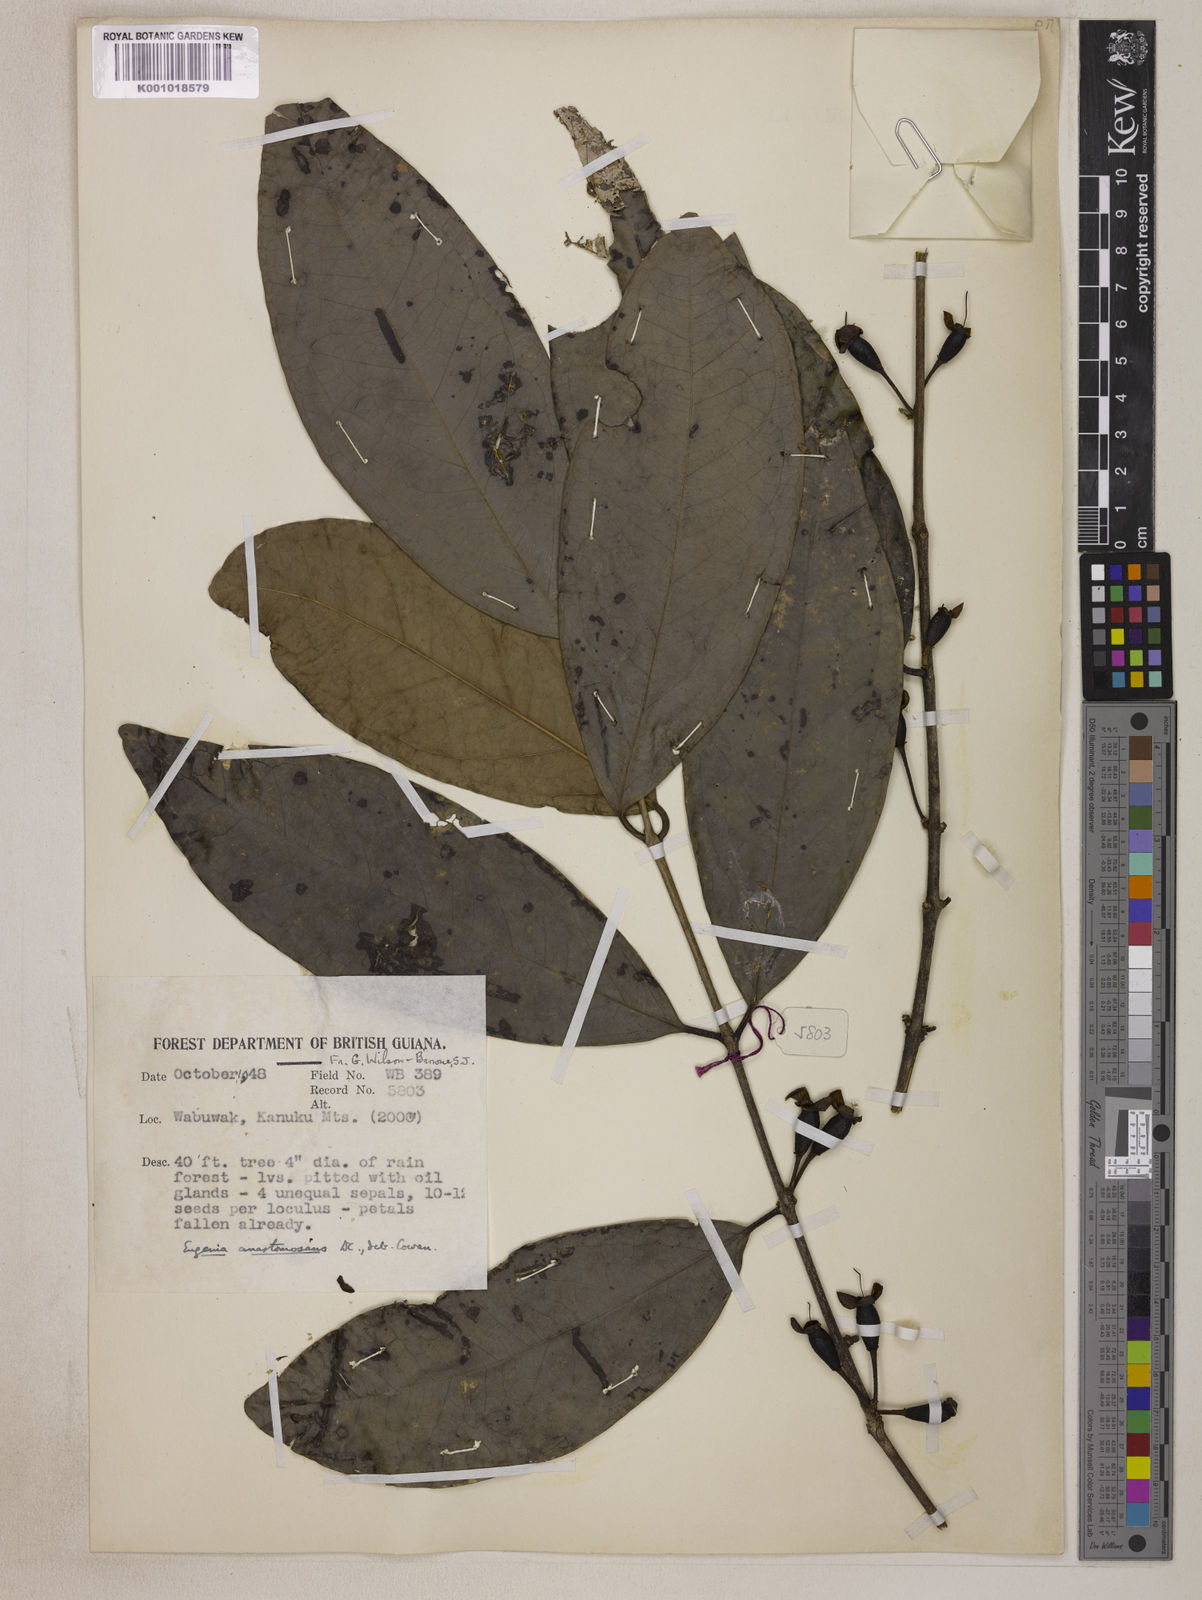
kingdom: Plantae
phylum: Tracheophyta
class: Magnoliopsida
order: Myrtales
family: Myrtaceae
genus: Eugenia
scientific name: Eugenia anastomosans
